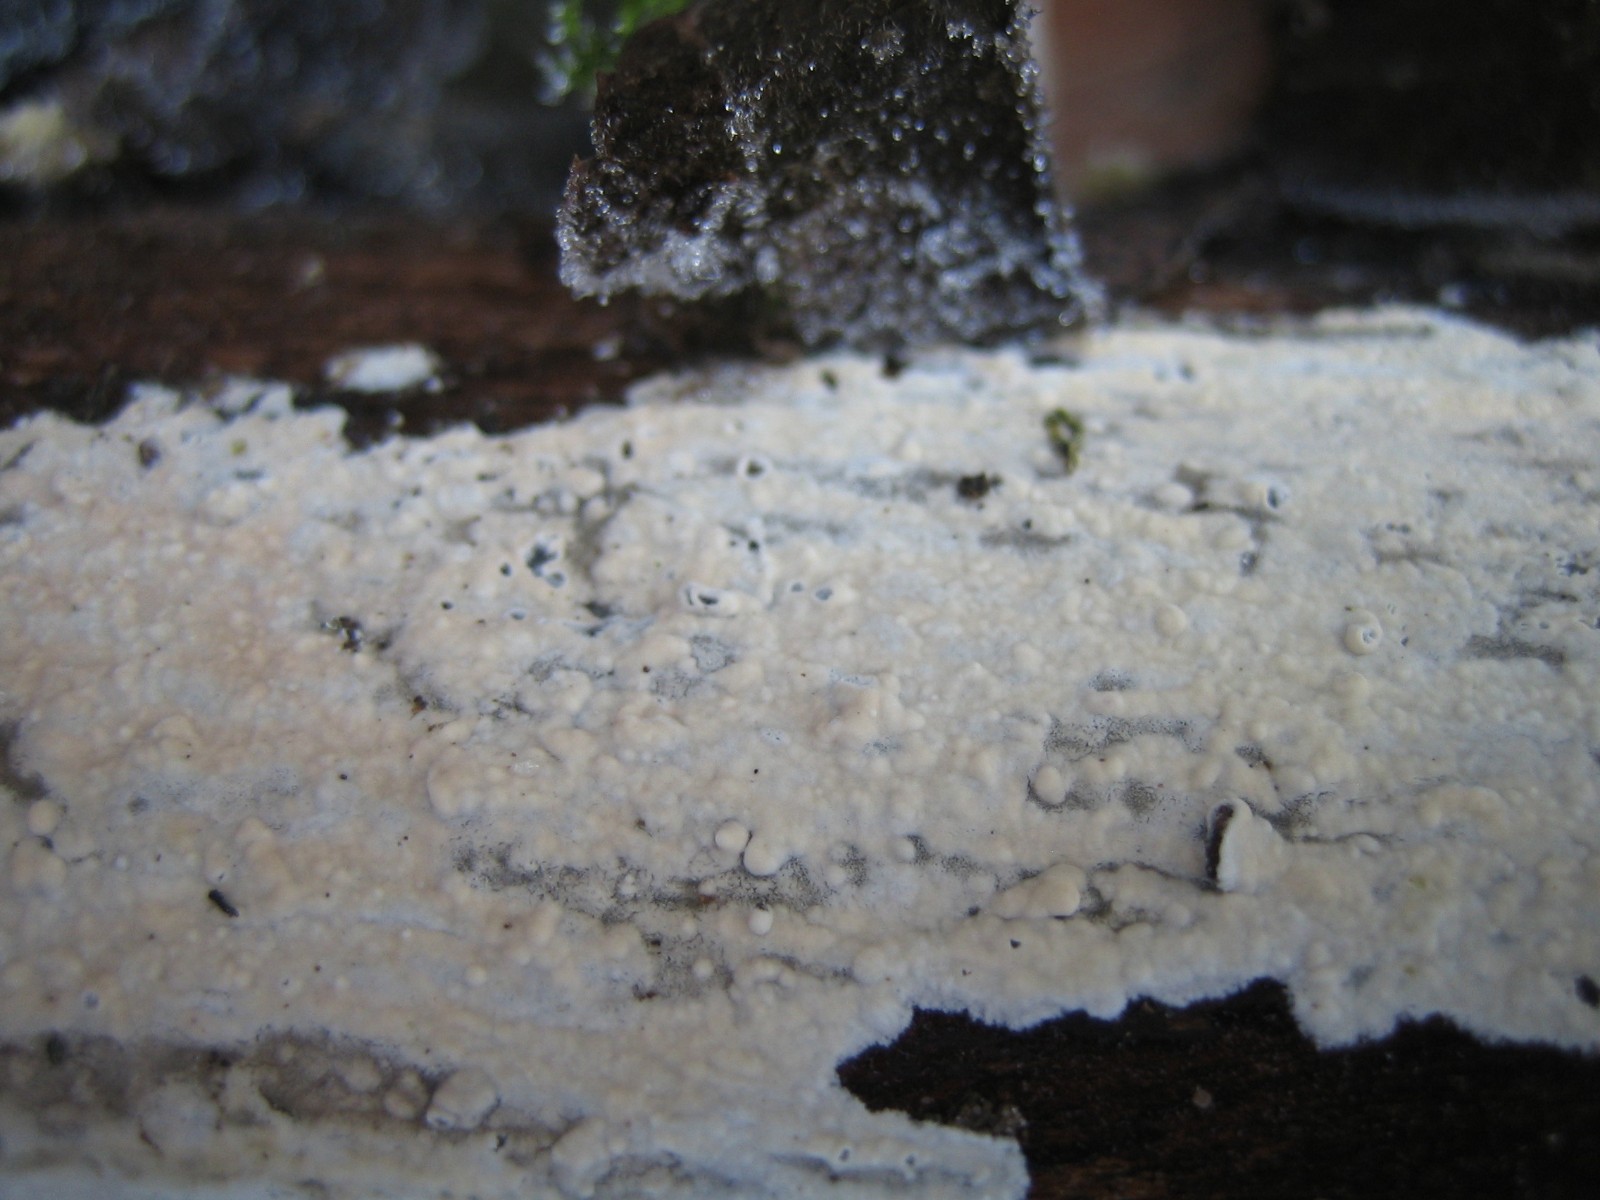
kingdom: Fungi
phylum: Basidiomycota
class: Agaricomycetes
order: Corticiales
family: Corticiaceae
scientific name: Corticiaceae
